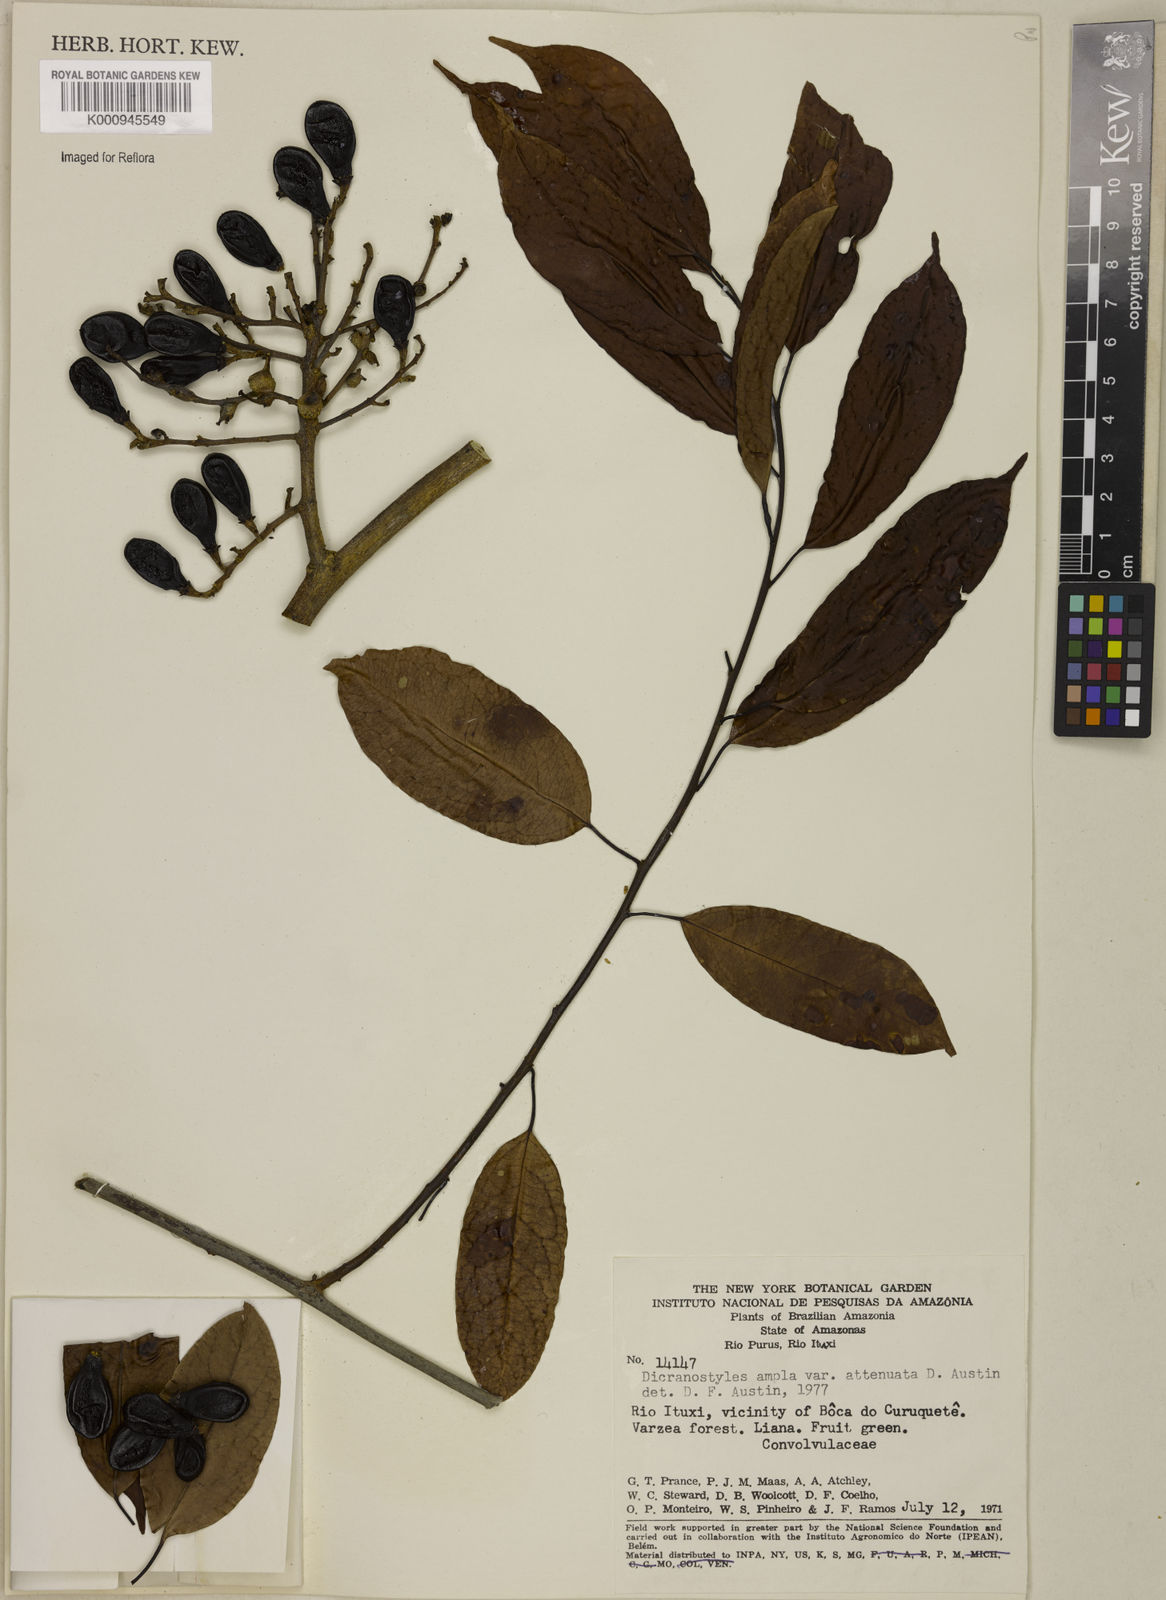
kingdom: Plantae
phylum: Tracheophyta
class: Magnoliopsida
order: Solanales
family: Convolvulaceae
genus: Dicranostyles
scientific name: Dicranostyles ampla
